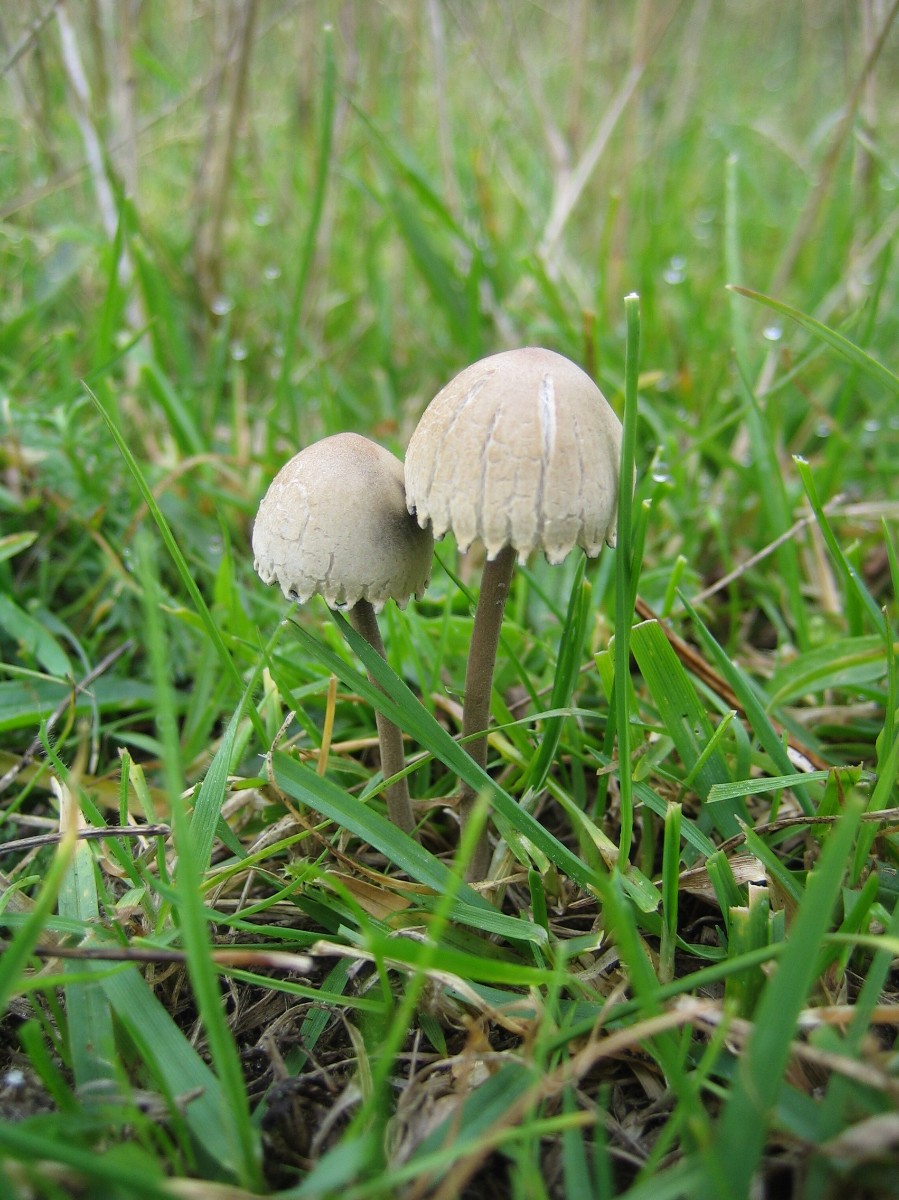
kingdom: Fungi
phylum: Basidiomycota
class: Agaricomycetes
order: Agaricales
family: Bolbitiaceae
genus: Panaeolus
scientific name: Panaeolus papilionaceus
